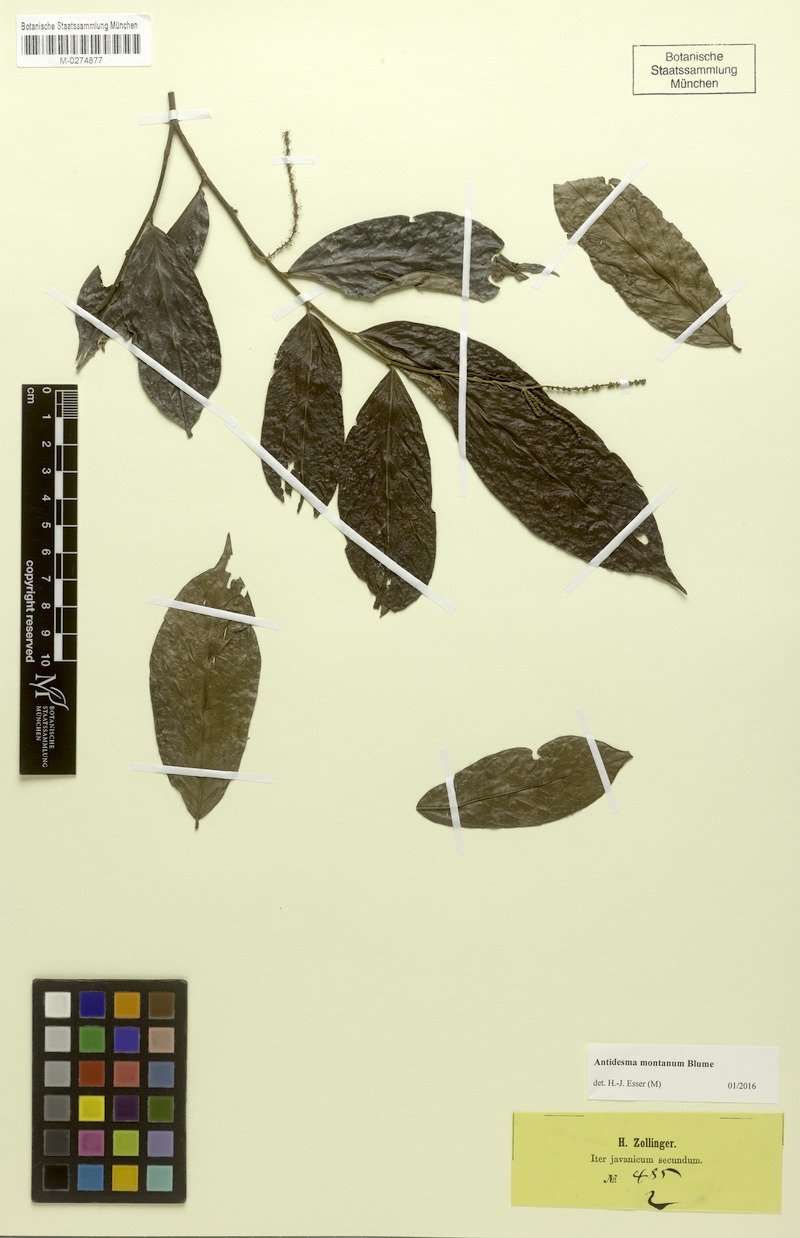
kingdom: Plantae
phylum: Tracheophyta
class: Magnoliopsida
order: Malpighiales
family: Phyllanthaceae
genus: Antidesma
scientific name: Antidesma montanum
